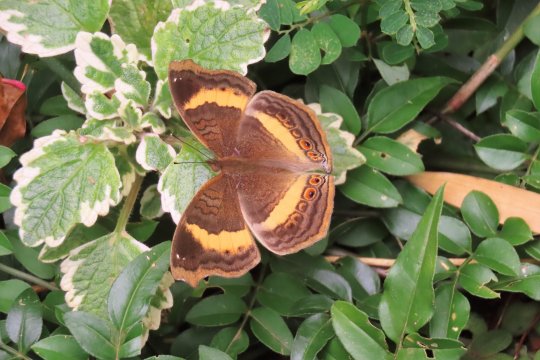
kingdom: Animalia
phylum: Arthropoda
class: Insecta
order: Lepidoptera
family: Nymphalidae
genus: Junonia
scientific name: Junonia terea
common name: Soldier Pansy
